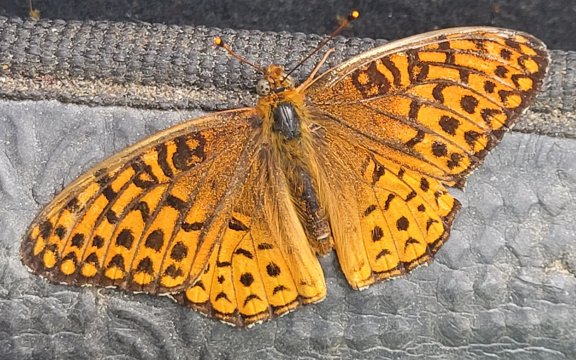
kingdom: Animalia
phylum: Arthropoda
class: Insecta
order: Lepidoptera
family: Nymphalidae
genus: Speyeria
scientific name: Speyeria atlantis
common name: Atlantis Fritillary
